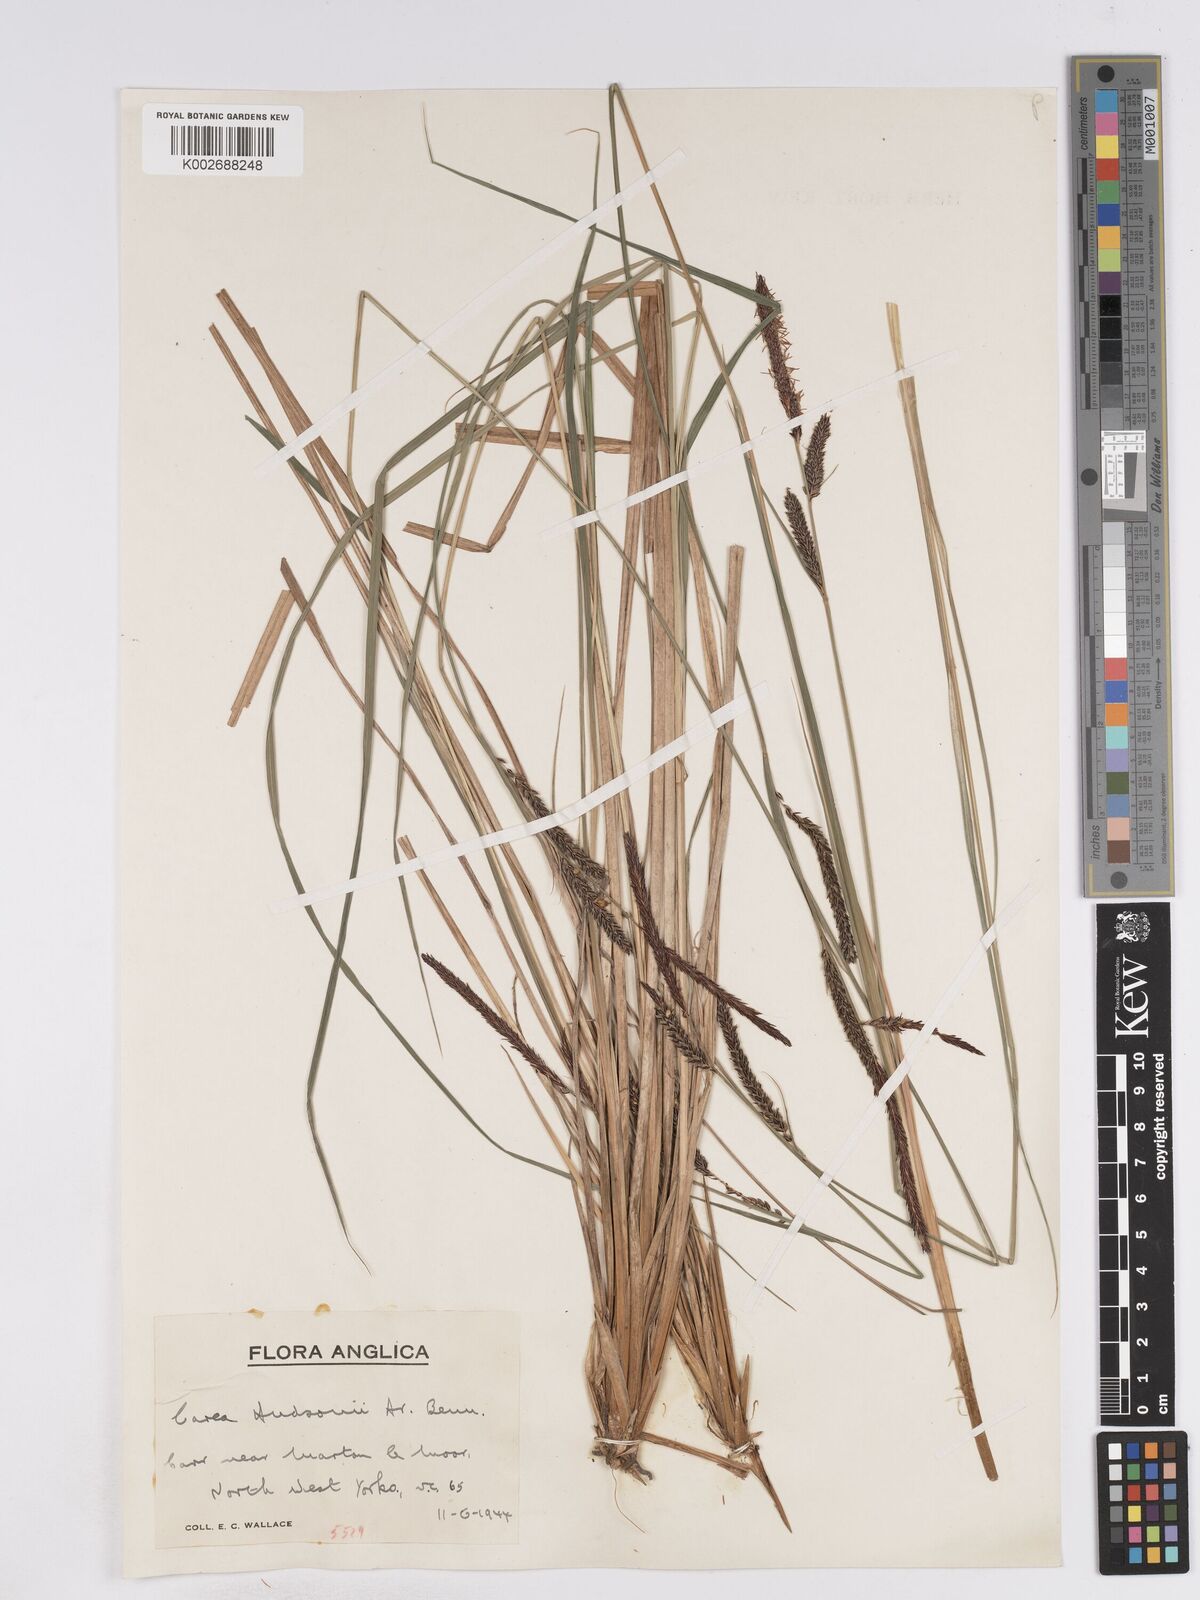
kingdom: Plantae
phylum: Tracheophyta
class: Liliopsida
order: Poales
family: Cyperaceae
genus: Carex
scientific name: Carex elata
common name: Tufted sedge
